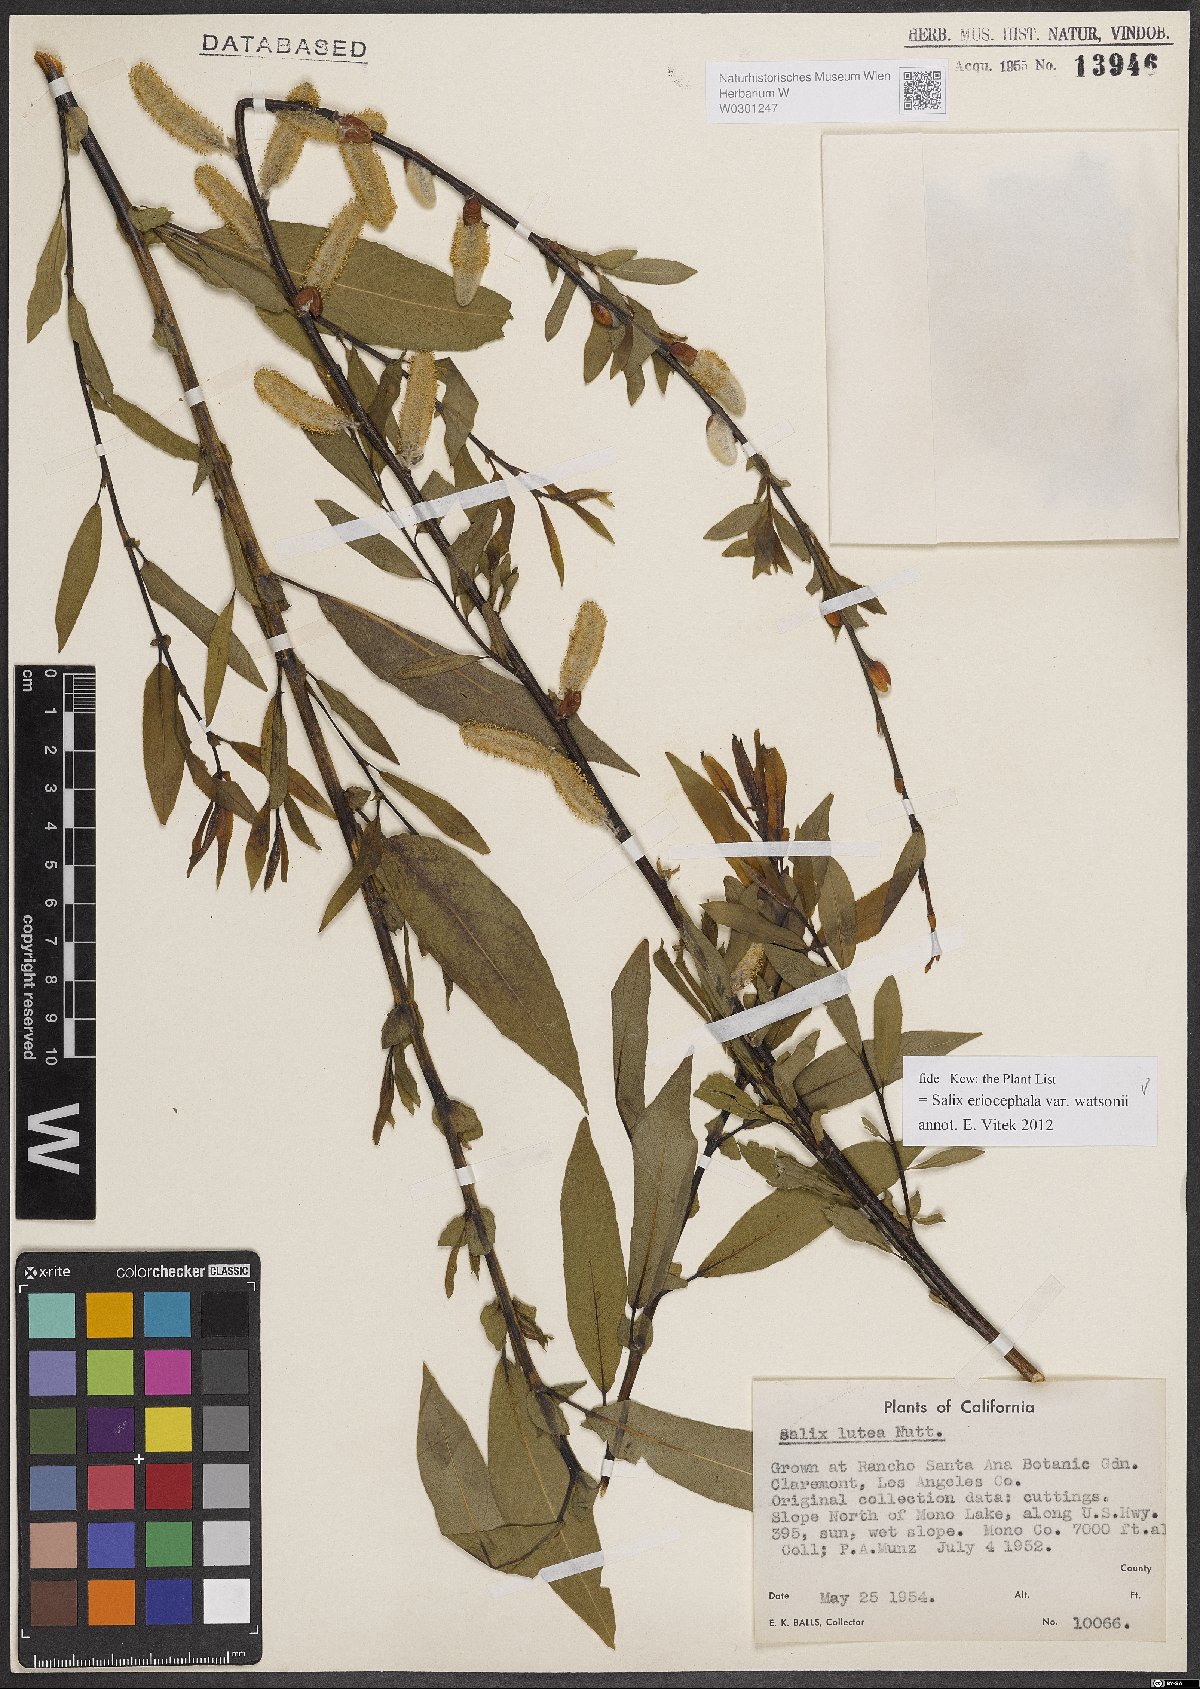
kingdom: Plantae
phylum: Tracheophyta
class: Magnoliopsida
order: Malpighiales
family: Salicaceae
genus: Salix
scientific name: Salix lutea
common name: Yellow willow
